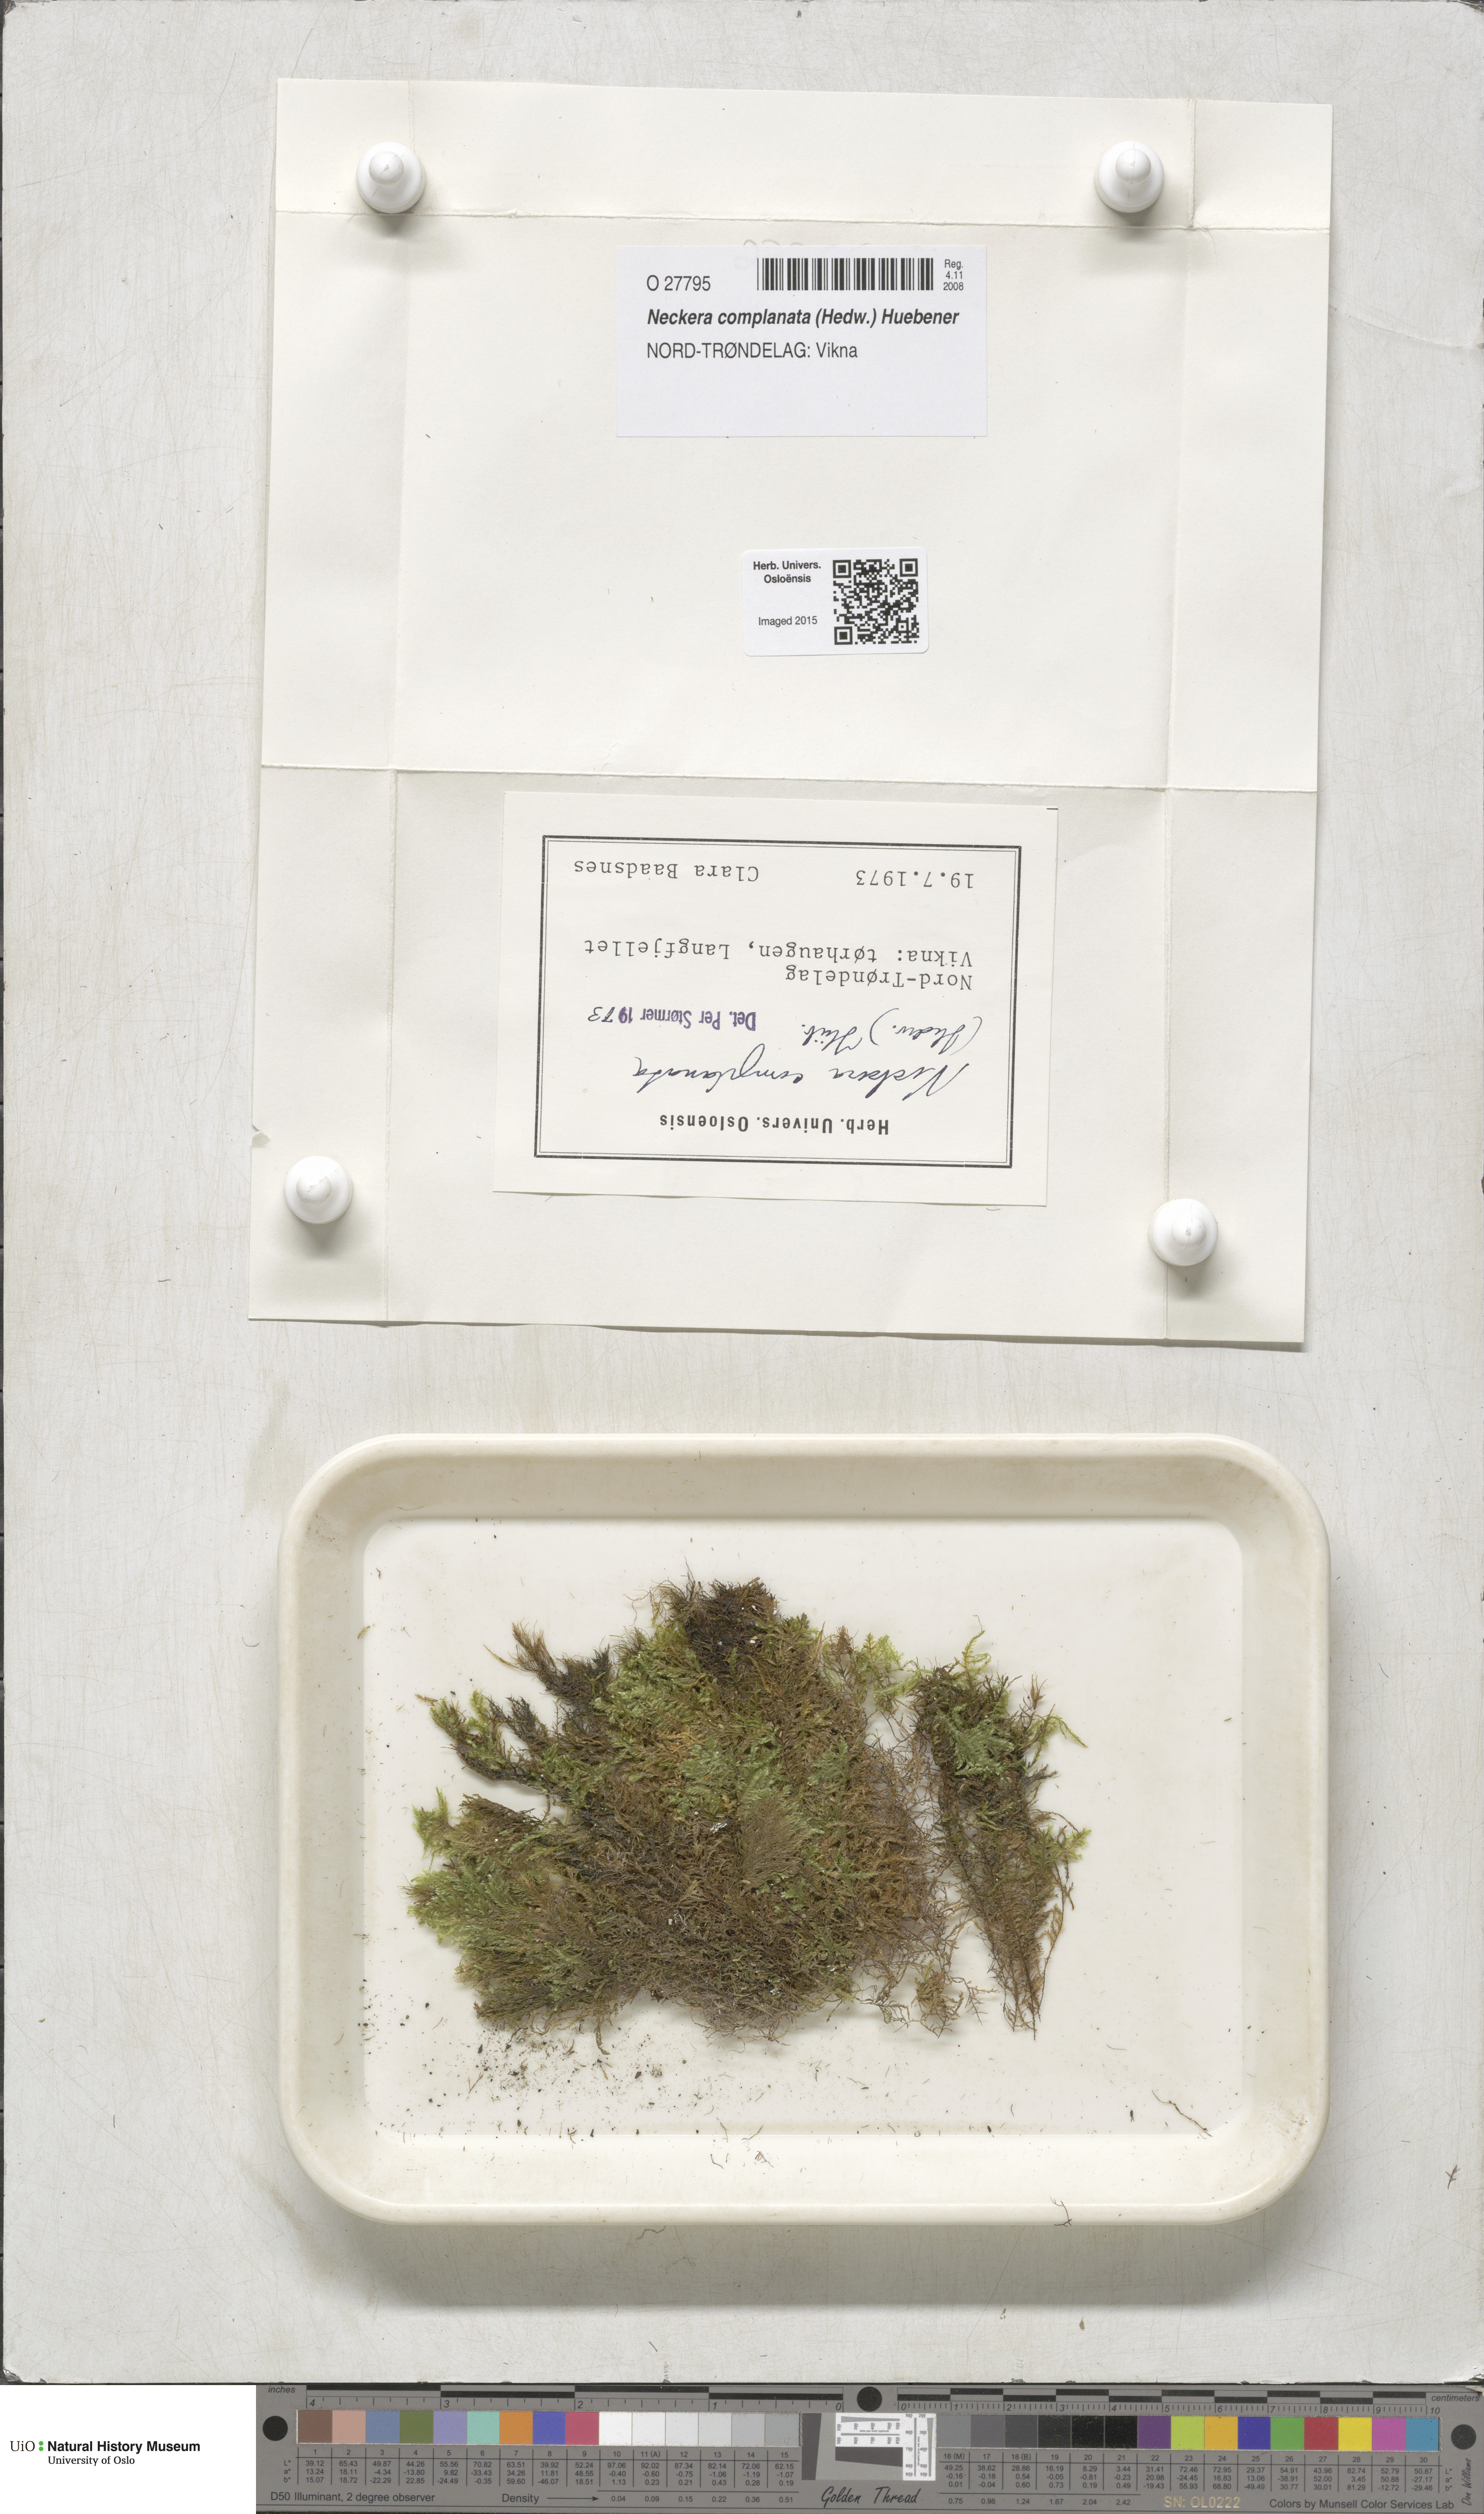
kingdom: Plantae
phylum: Bryophyta
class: Bryopsida
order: Hypnales
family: Neckeraceae
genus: Alleniella
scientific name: Alleniella complanata
